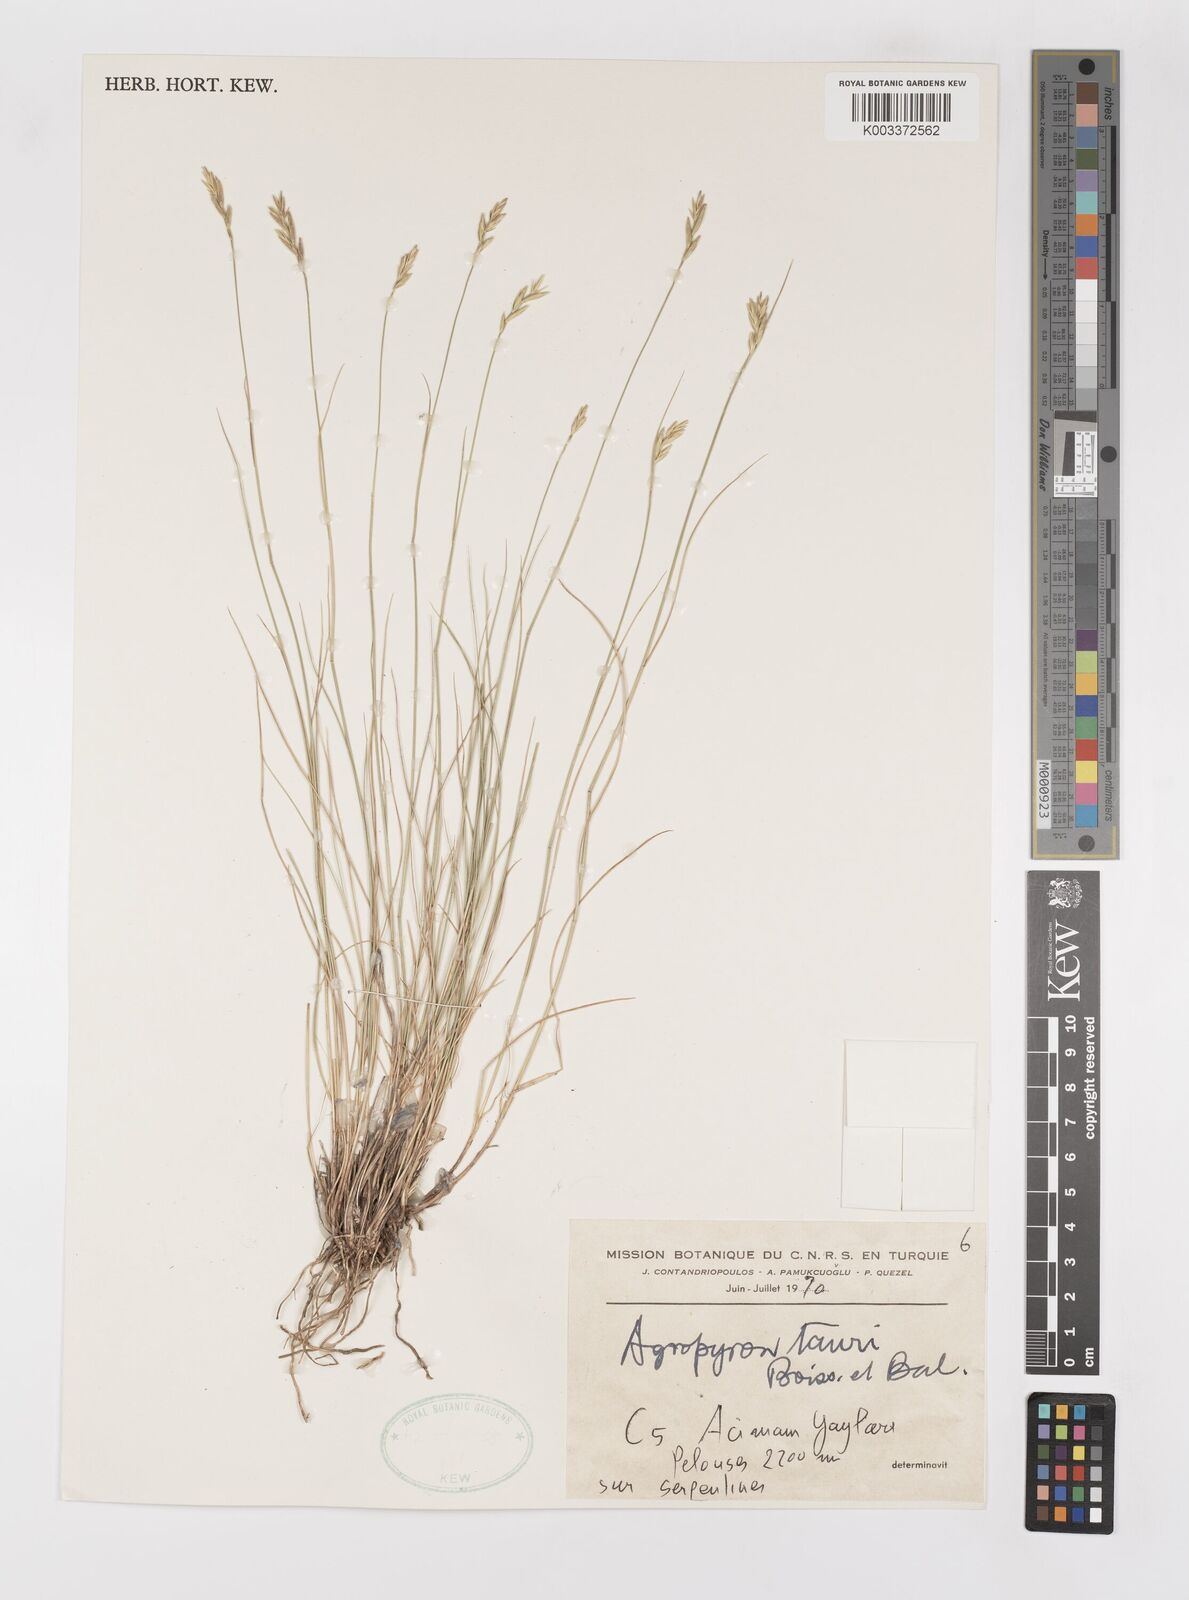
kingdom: Plantae
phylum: Tracheophyta
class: Liliopsida
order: Poales
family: Poaceae
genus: Pseudoroegneria
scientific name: Pseudoroegneria tauri
